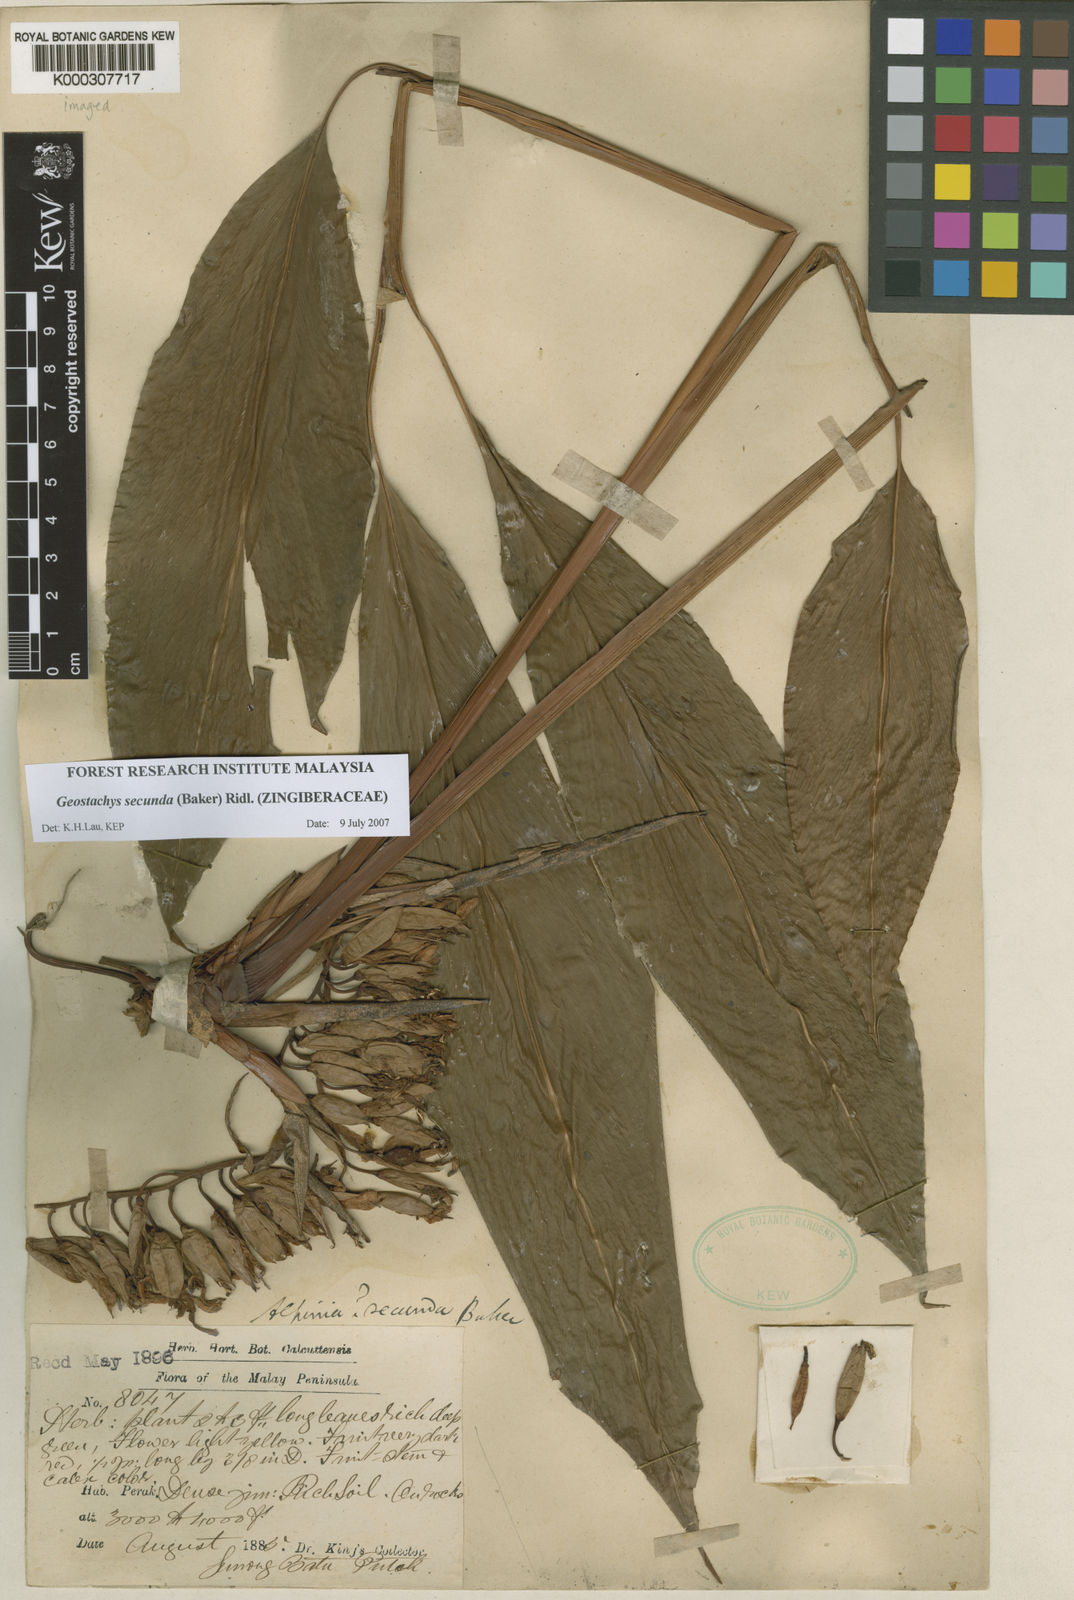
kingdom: Plantae
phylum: Tracheophyta
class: Liliopsida
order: Zingiberales
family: Zingiberaceae
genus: Geostachys
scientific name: Geostachys secunda
